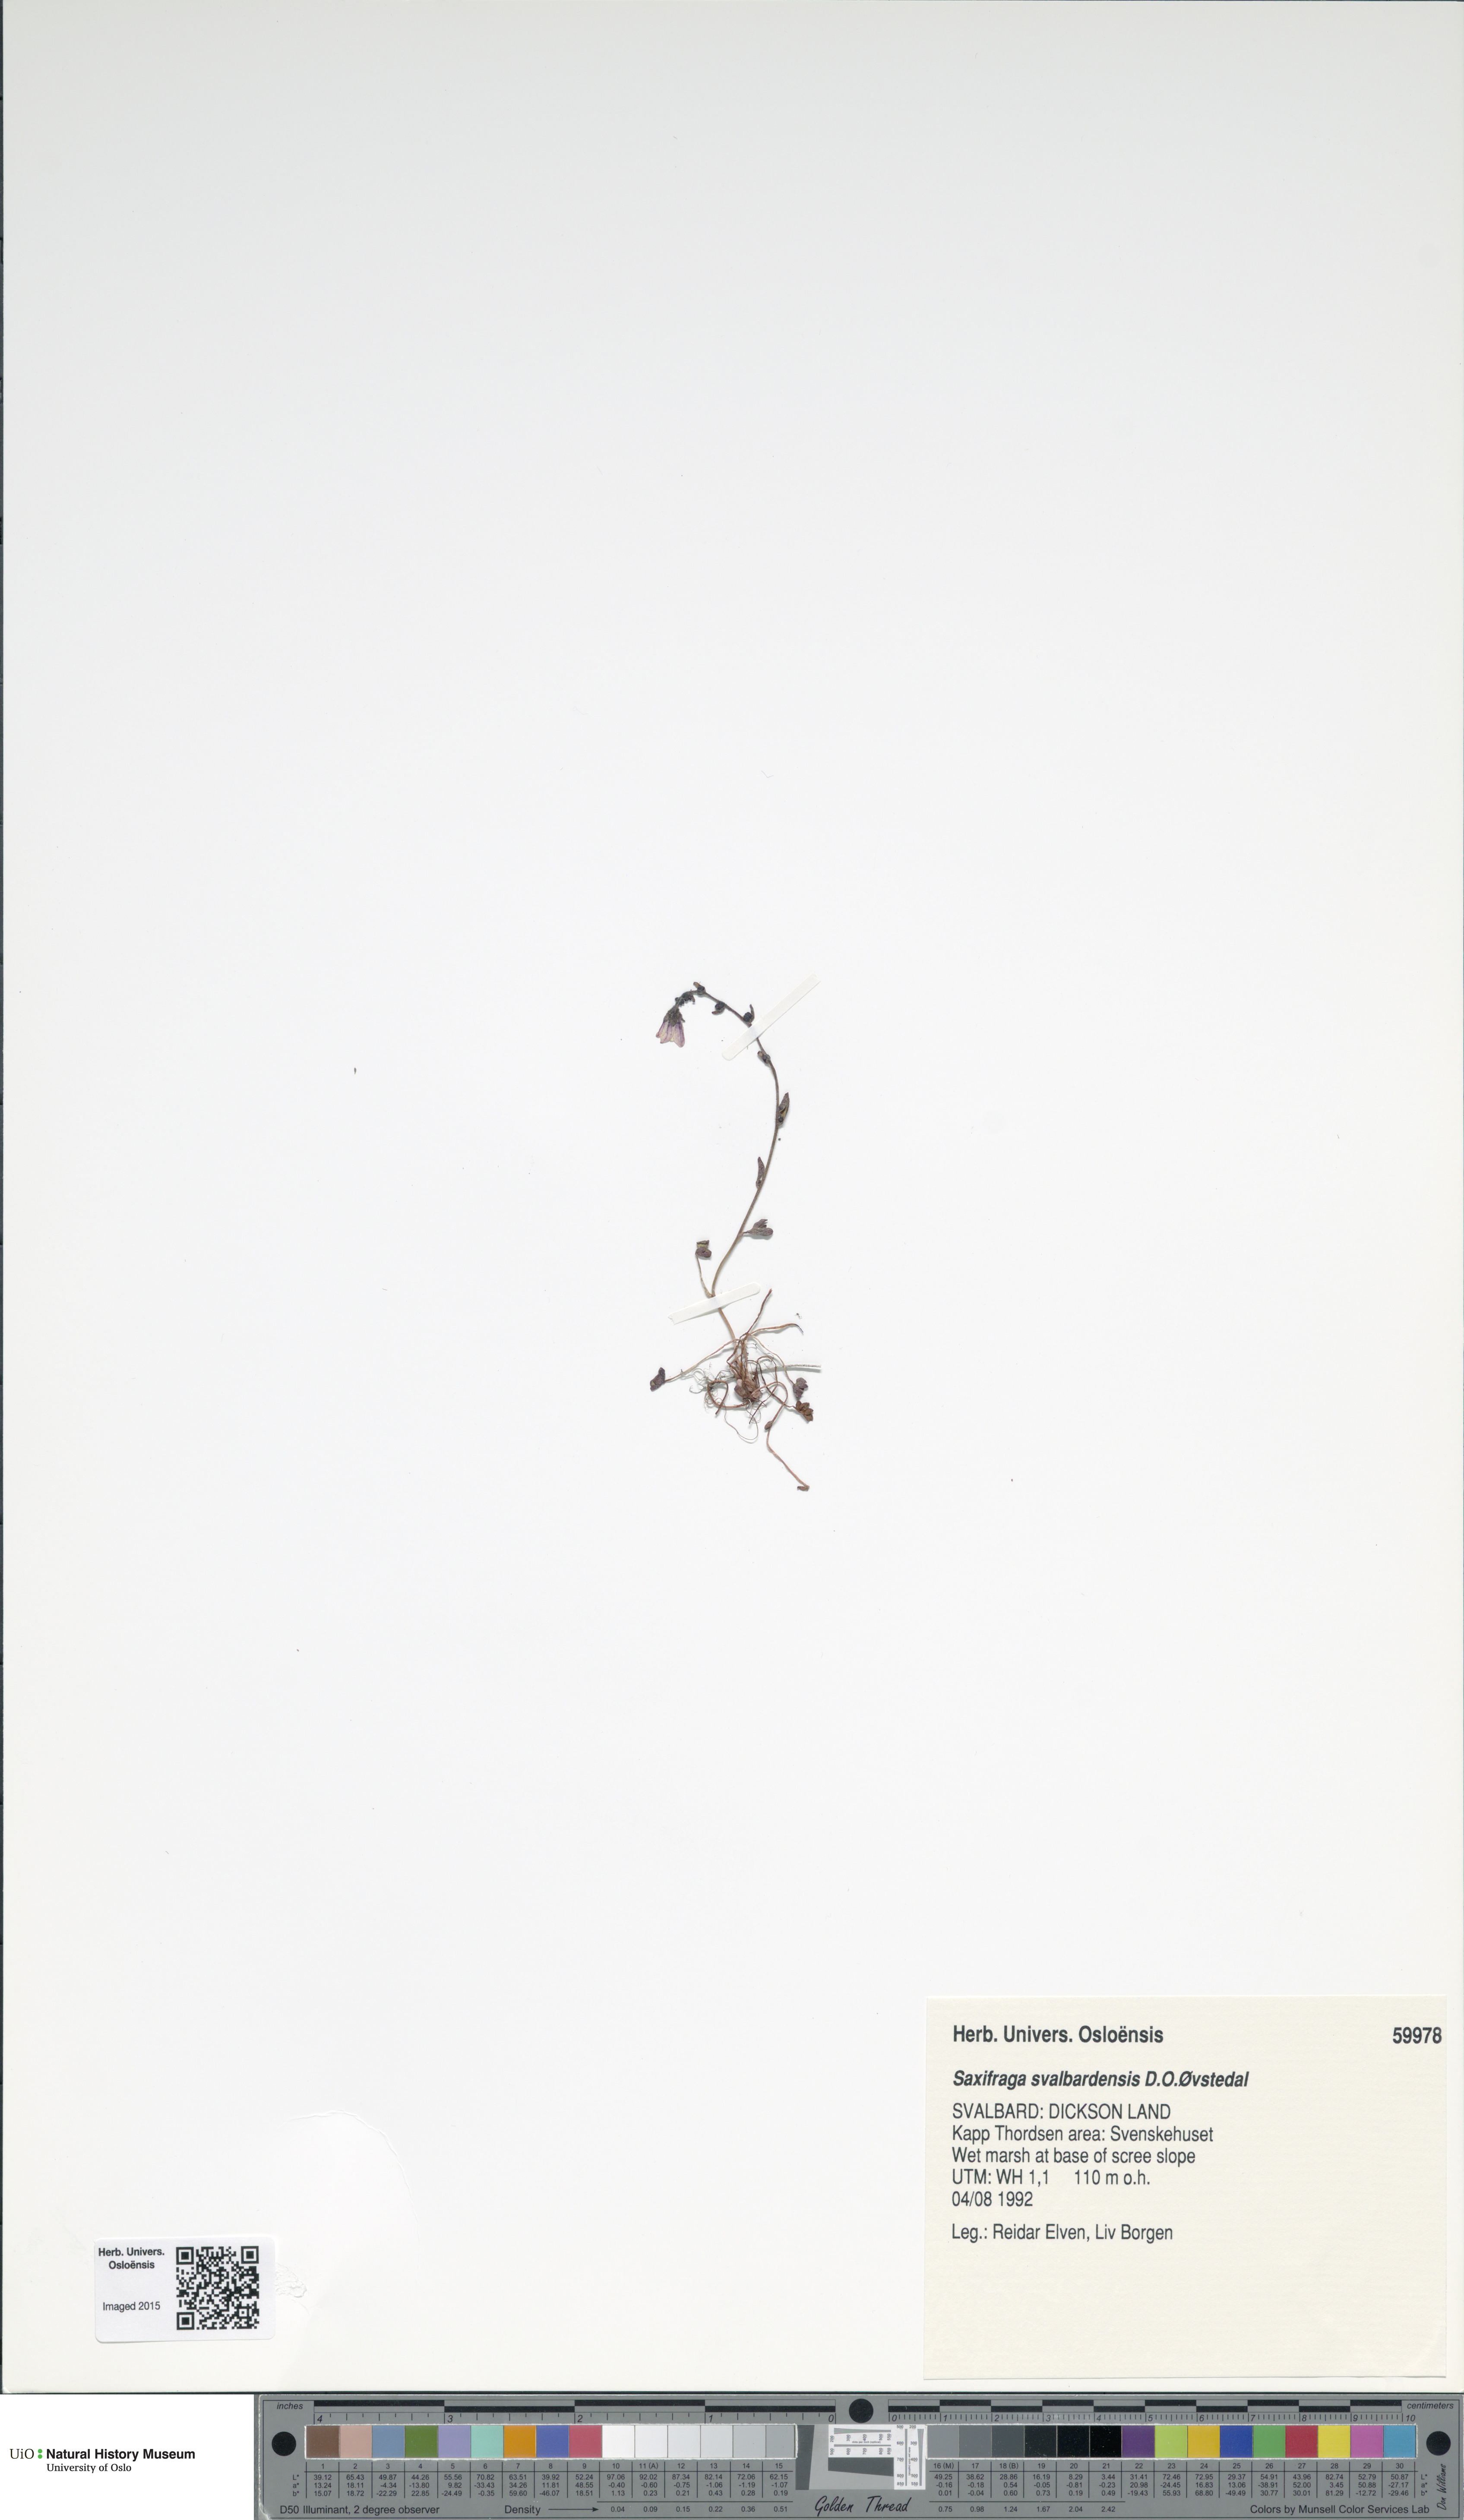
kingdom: Plantae
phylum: Tracheophyta
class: Magnoliopsida
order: Saxifragales
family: Saxifragaceae
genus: Saxifraga
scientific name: Saxifraga svalbardensis
